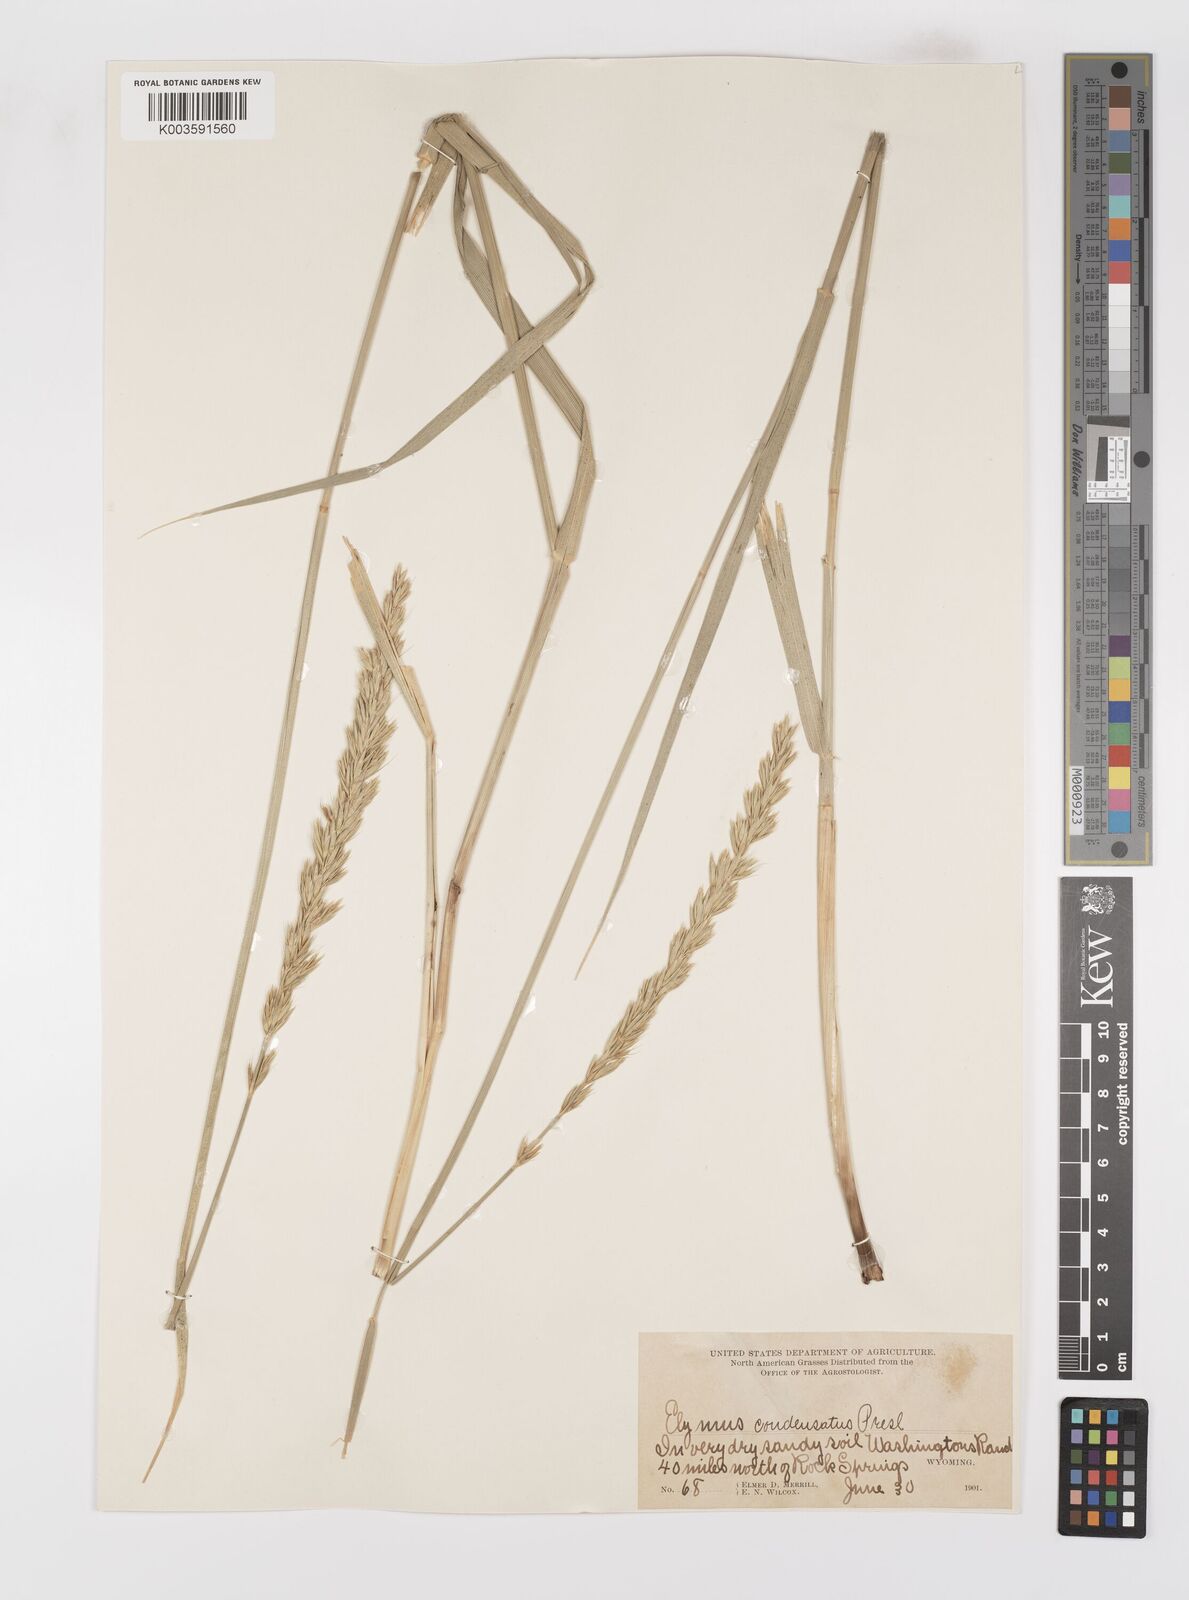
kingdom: Plantae
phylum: Tracheophyta
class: Liliopsida
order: Poales
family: Poaceae
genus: Leymus
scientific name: Leymus condensatus
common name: Giant wild rye
